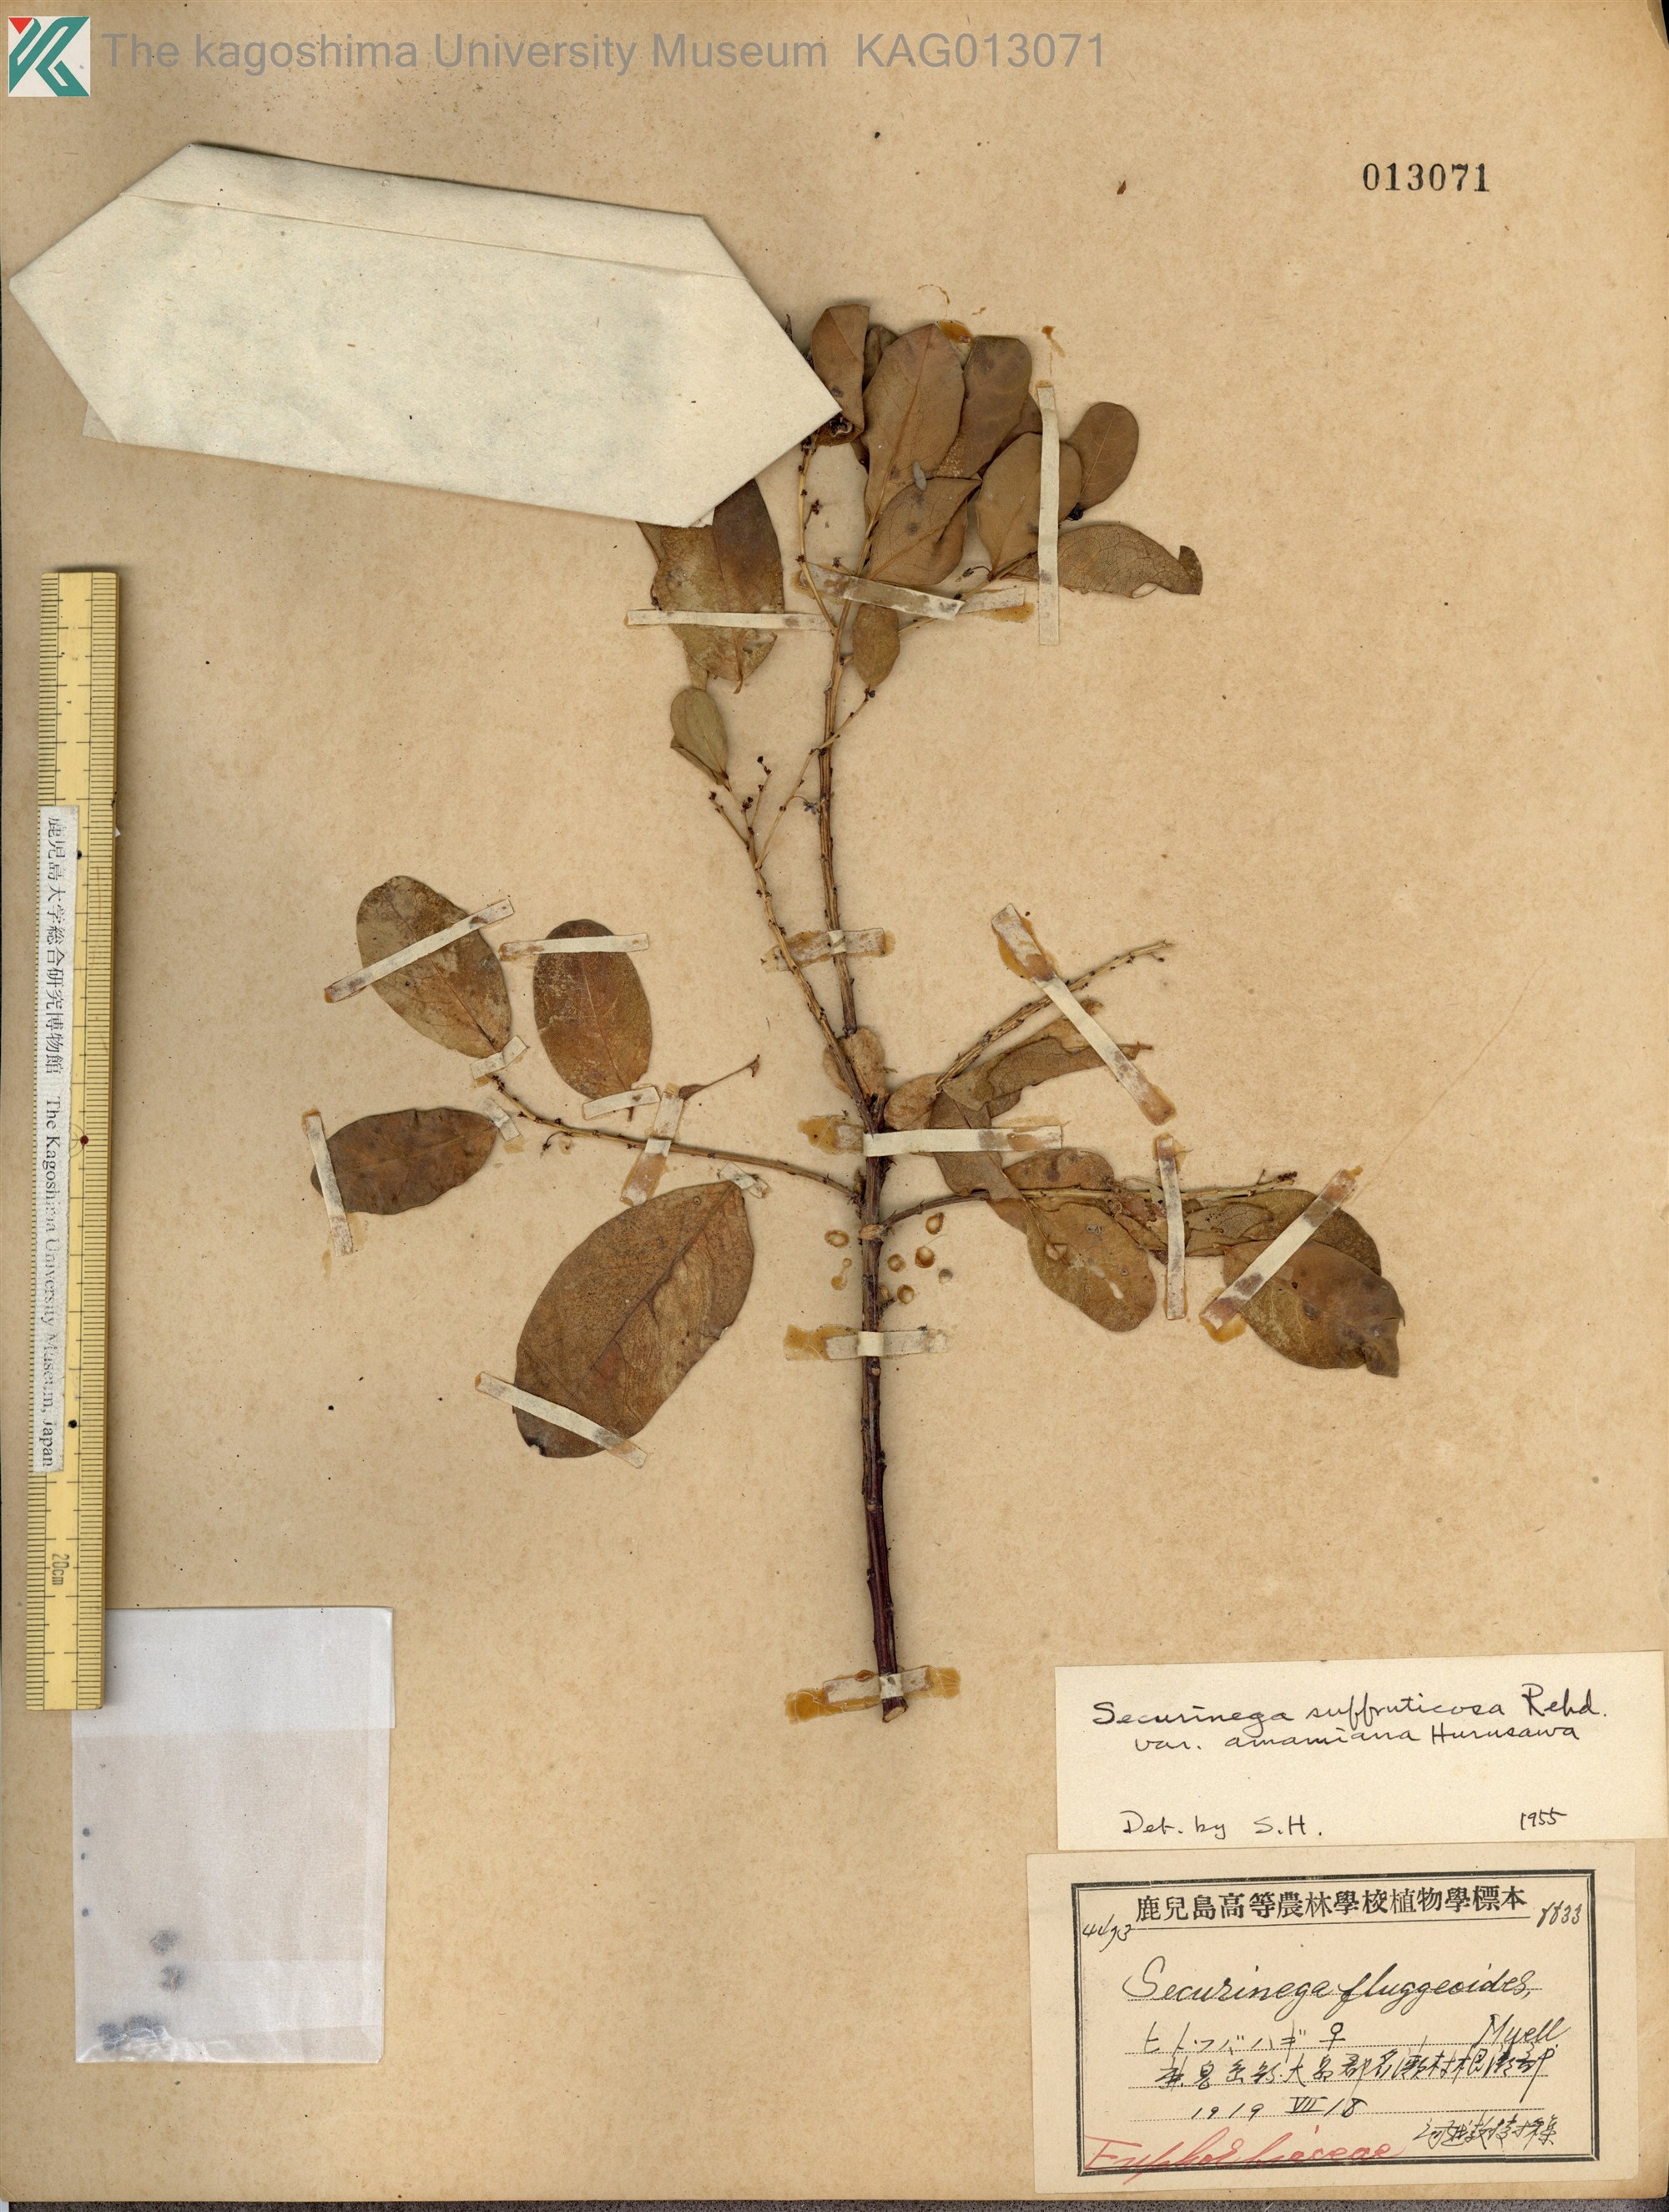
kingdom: Plantae
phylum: Tracheophyta
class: Magnoliopsida
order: Malpighiales
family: Phyllanthaceae
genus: Flueggea
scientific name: Flueggea suffruticosa
